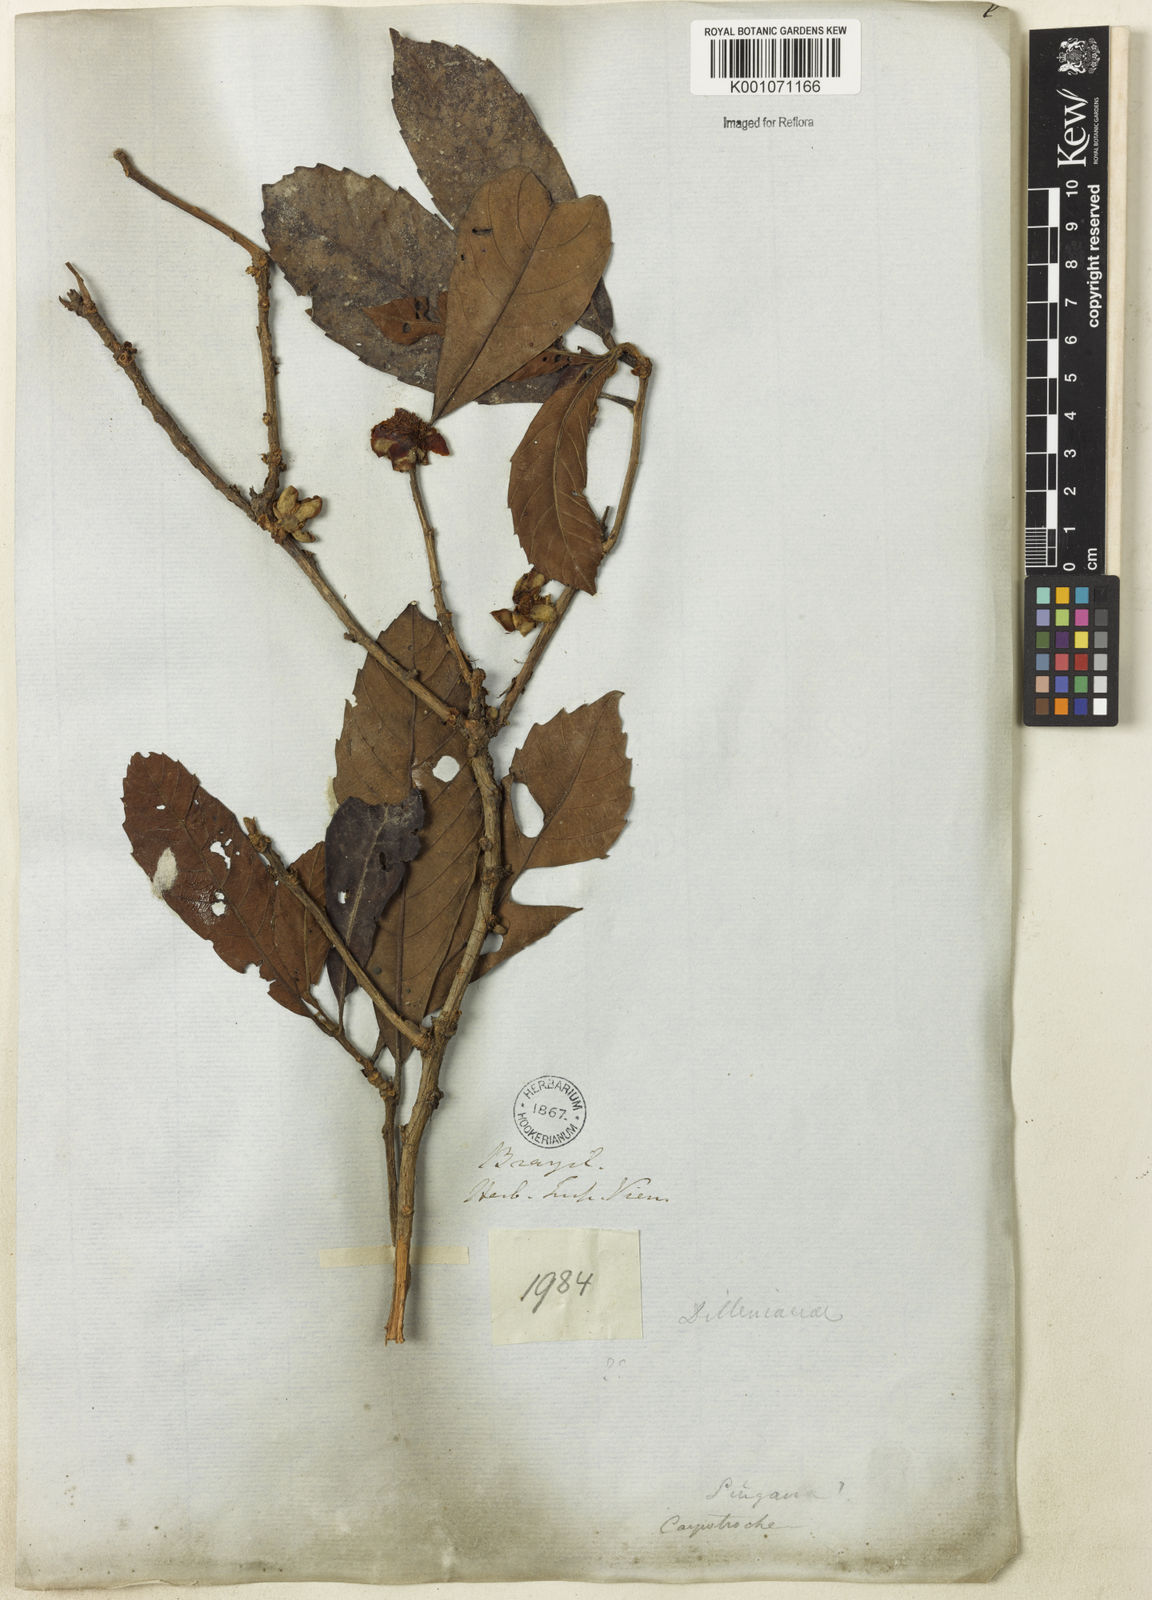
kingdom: Plantae
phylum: Tracheophyta
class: Magnoliopsida
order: Dilleniales
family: Dilleniaceae
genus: Doliocarpus
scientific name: Doliocarpus grandiflorus
